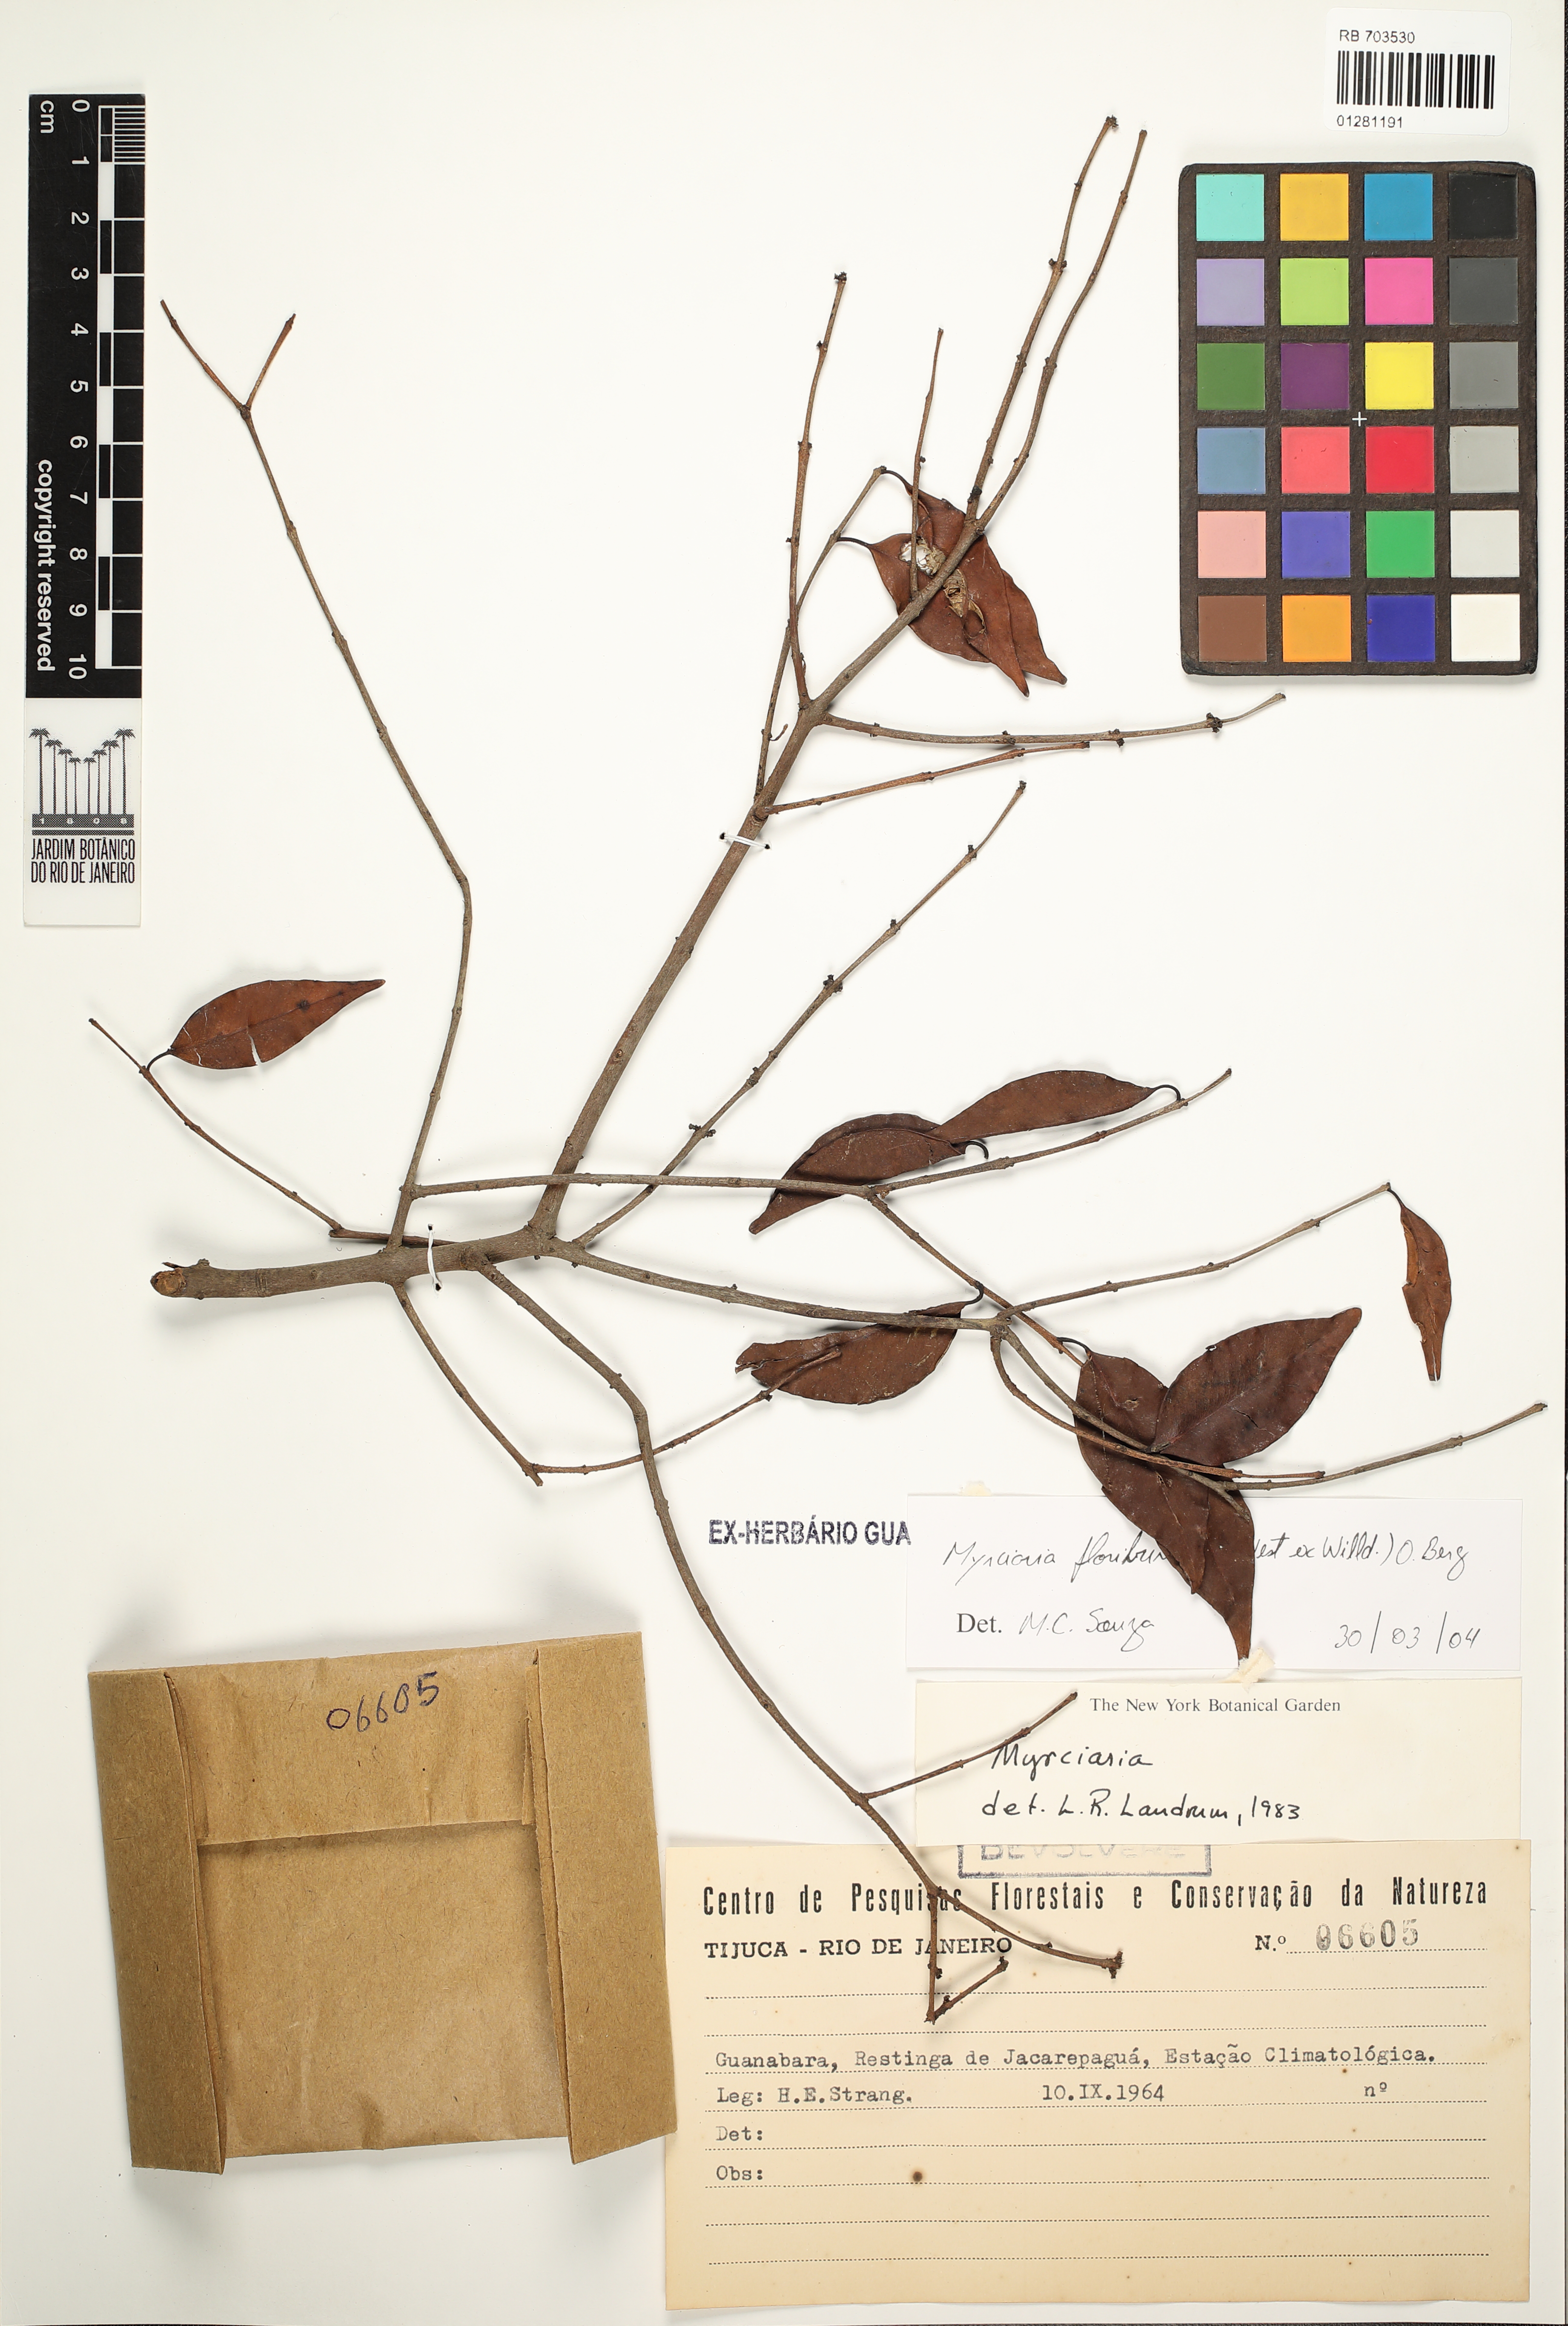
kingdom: Plantae
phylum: Tracheophyta
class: Magnoliopsida
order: Myrtales
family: Myrtaceae
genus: Myrciaria
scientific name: Myrciaria floribunda
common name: Guavaberry
